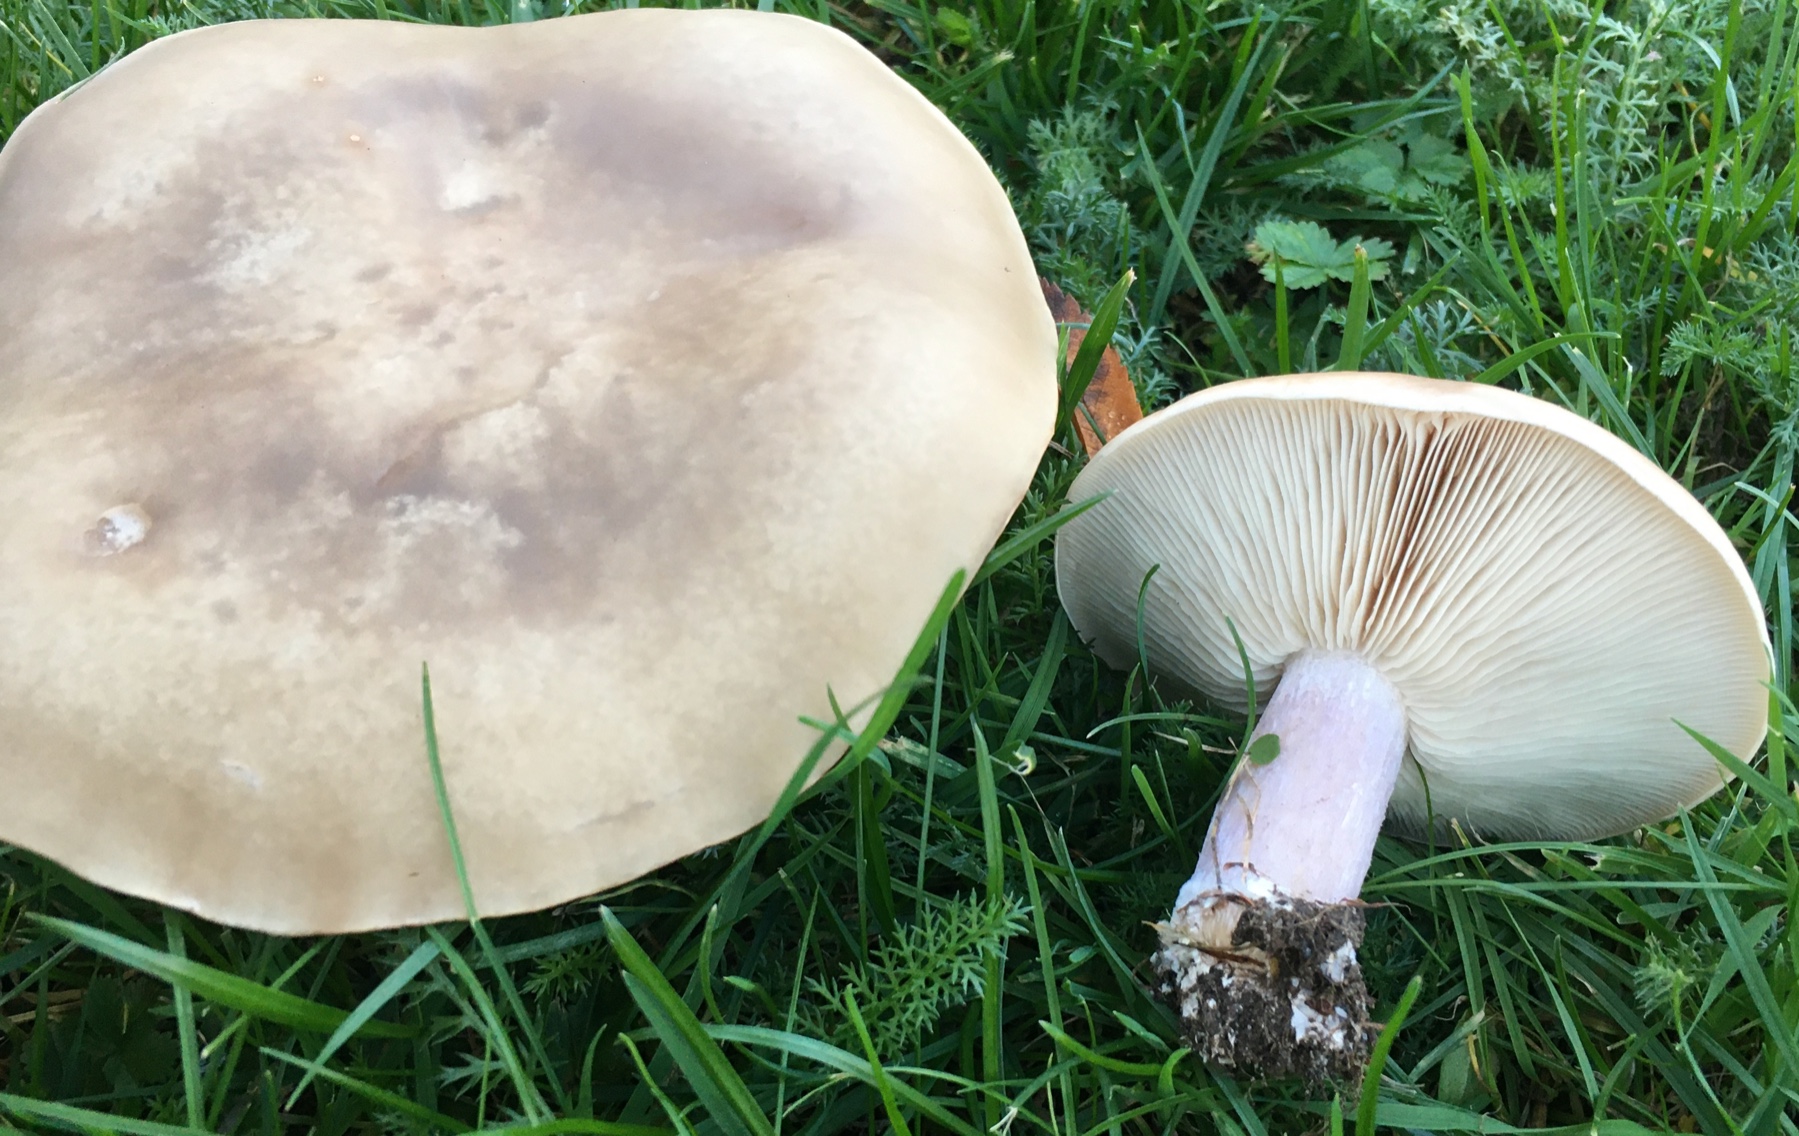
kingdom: Fungi
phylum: Basidiomycota
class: Agaricomycetes
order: Agaricales
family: Tricholomataceae
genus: Lepista
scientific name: Lepista personata
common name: bleg hekseringshat
